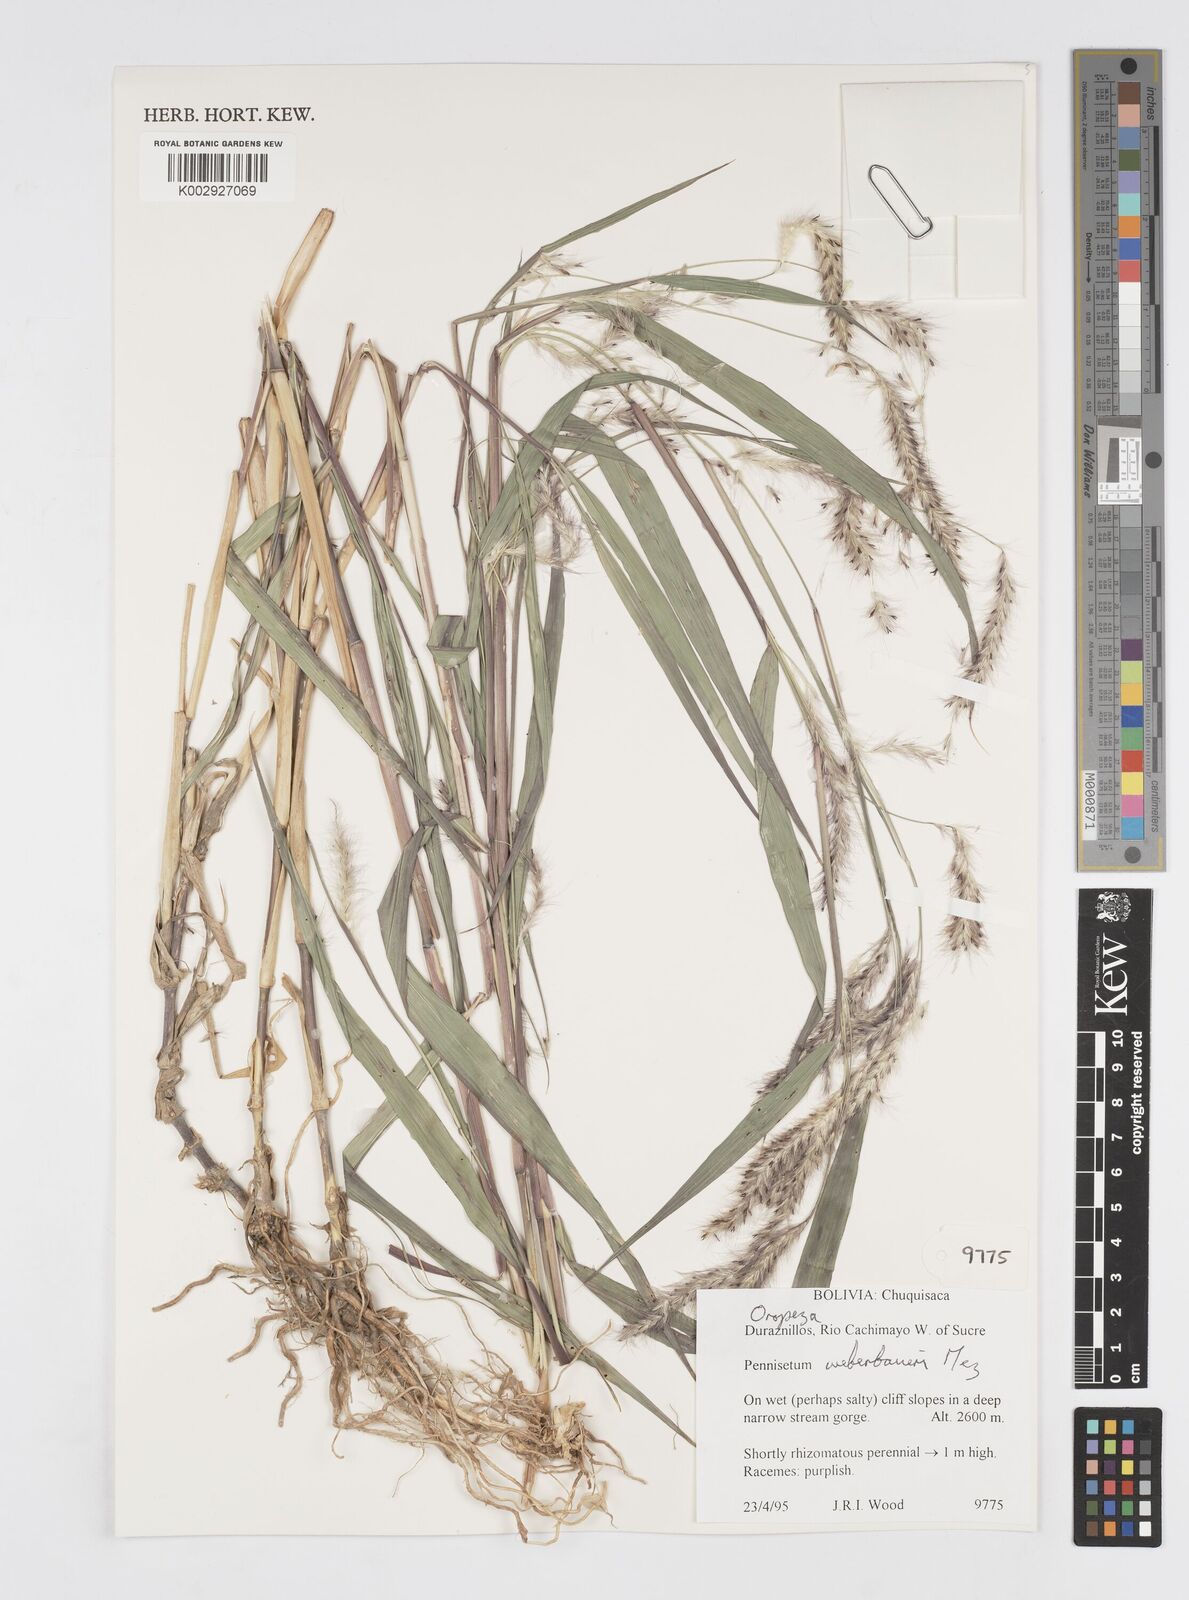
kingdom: Plantae
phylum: Tracheophyta
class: Liliopsida
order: Poales
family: Poaceae
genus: Cenchrus
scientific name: Cenchrus weberbaueri
